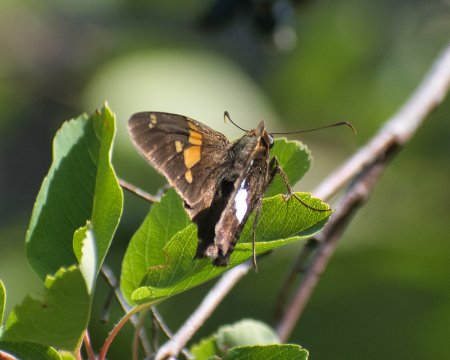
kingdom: Animalia
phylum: Arthropoda
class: Insecta
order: Lepidoptera
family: Hesperiidae
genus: Epargyreus
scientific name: Epargyreus clarus
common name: Silver-spotted Skipper
